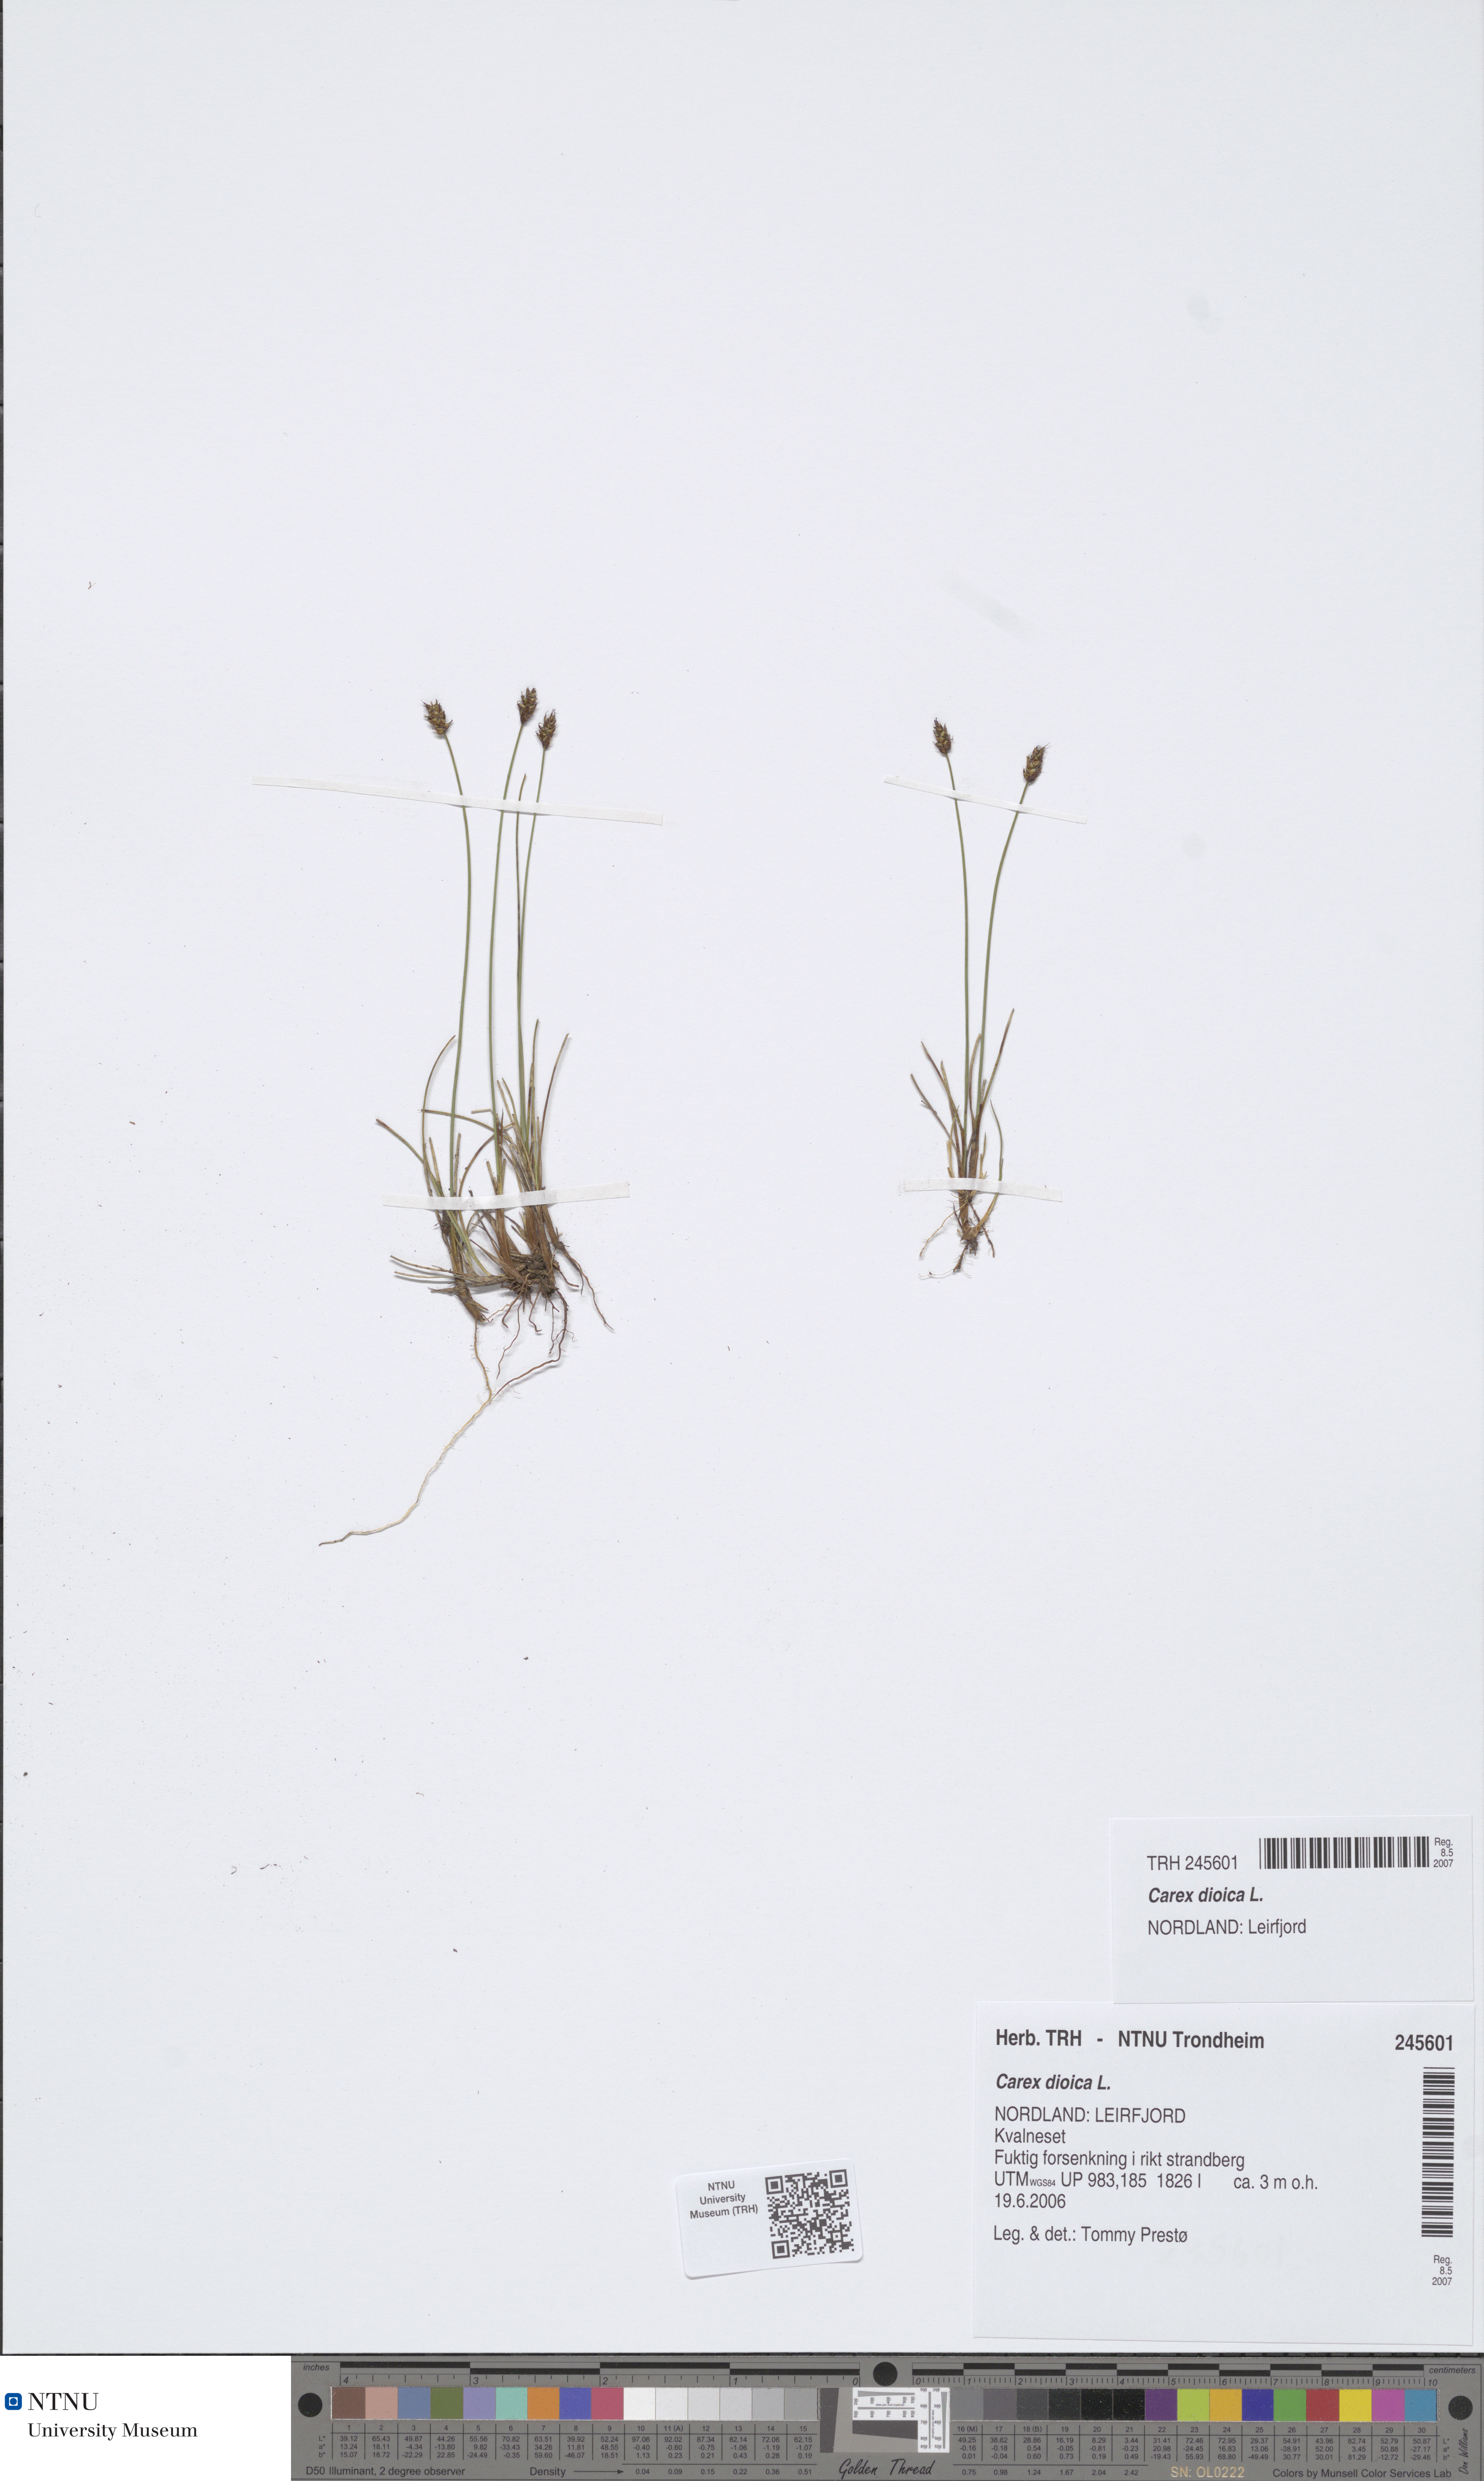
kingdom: Plantae
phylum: Tracheophyta
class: Liliopsida
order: Poales
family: Cyperaceae
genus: Carex
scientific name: Carex dioica
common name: Dioecious sedge
